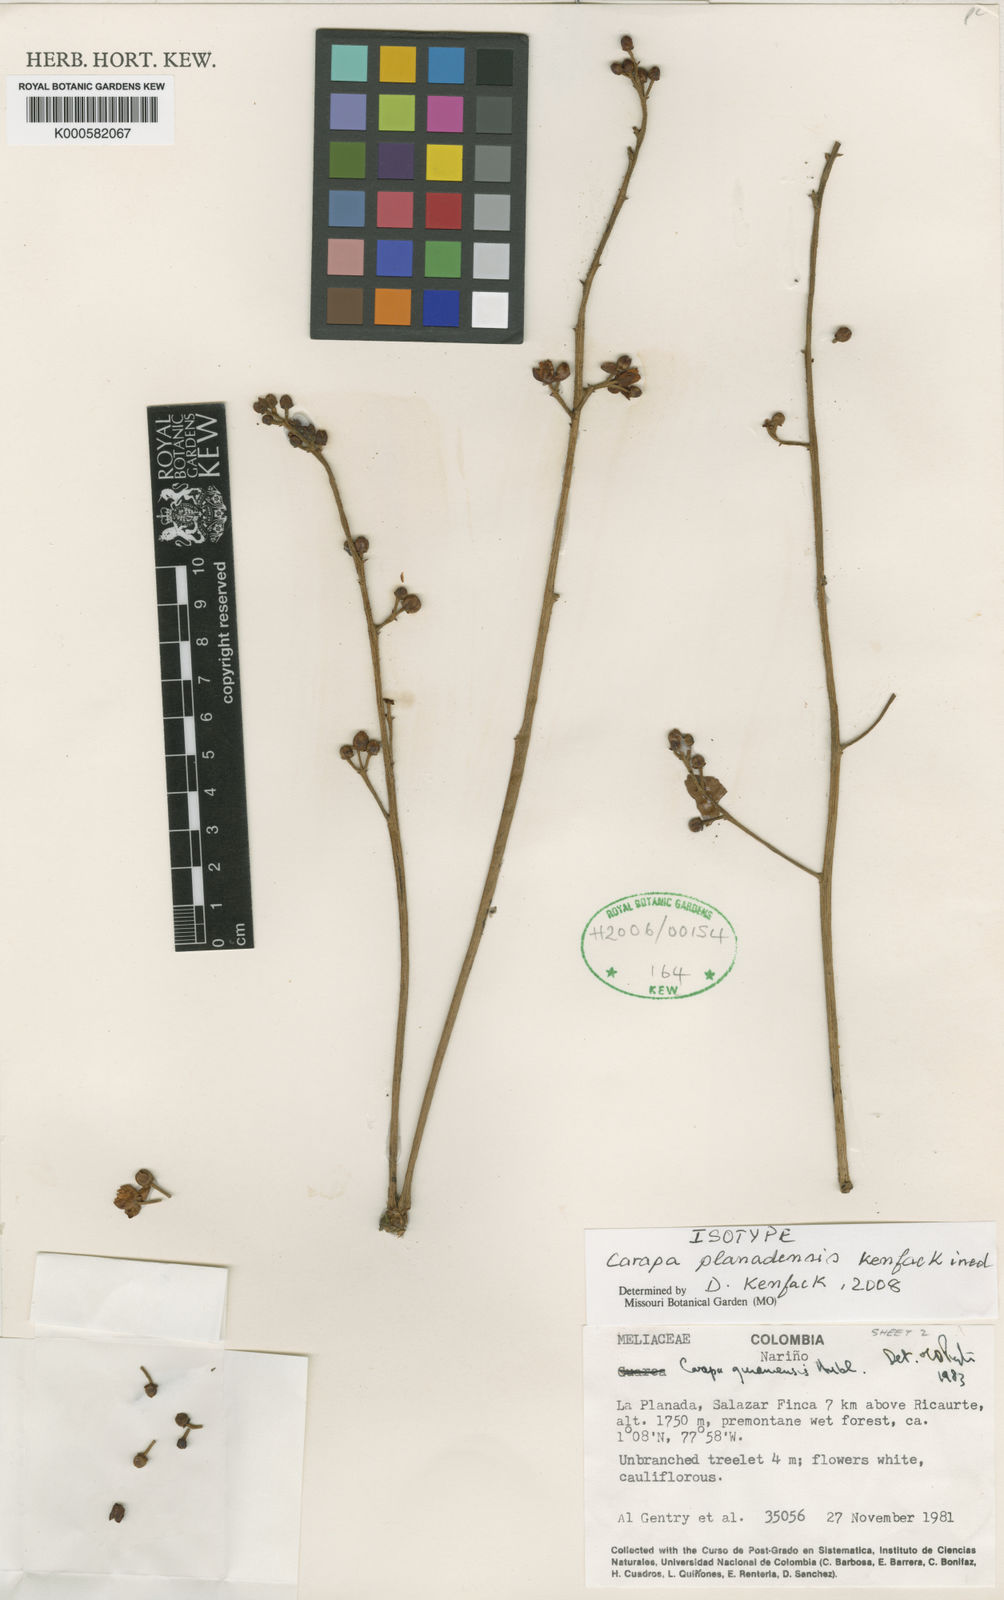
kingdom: Plantae
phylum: Tracheophyta
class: Magnoliopsida
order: Sapindales
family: Meliaceae
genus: Carapa
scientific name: Carapa planadensis
